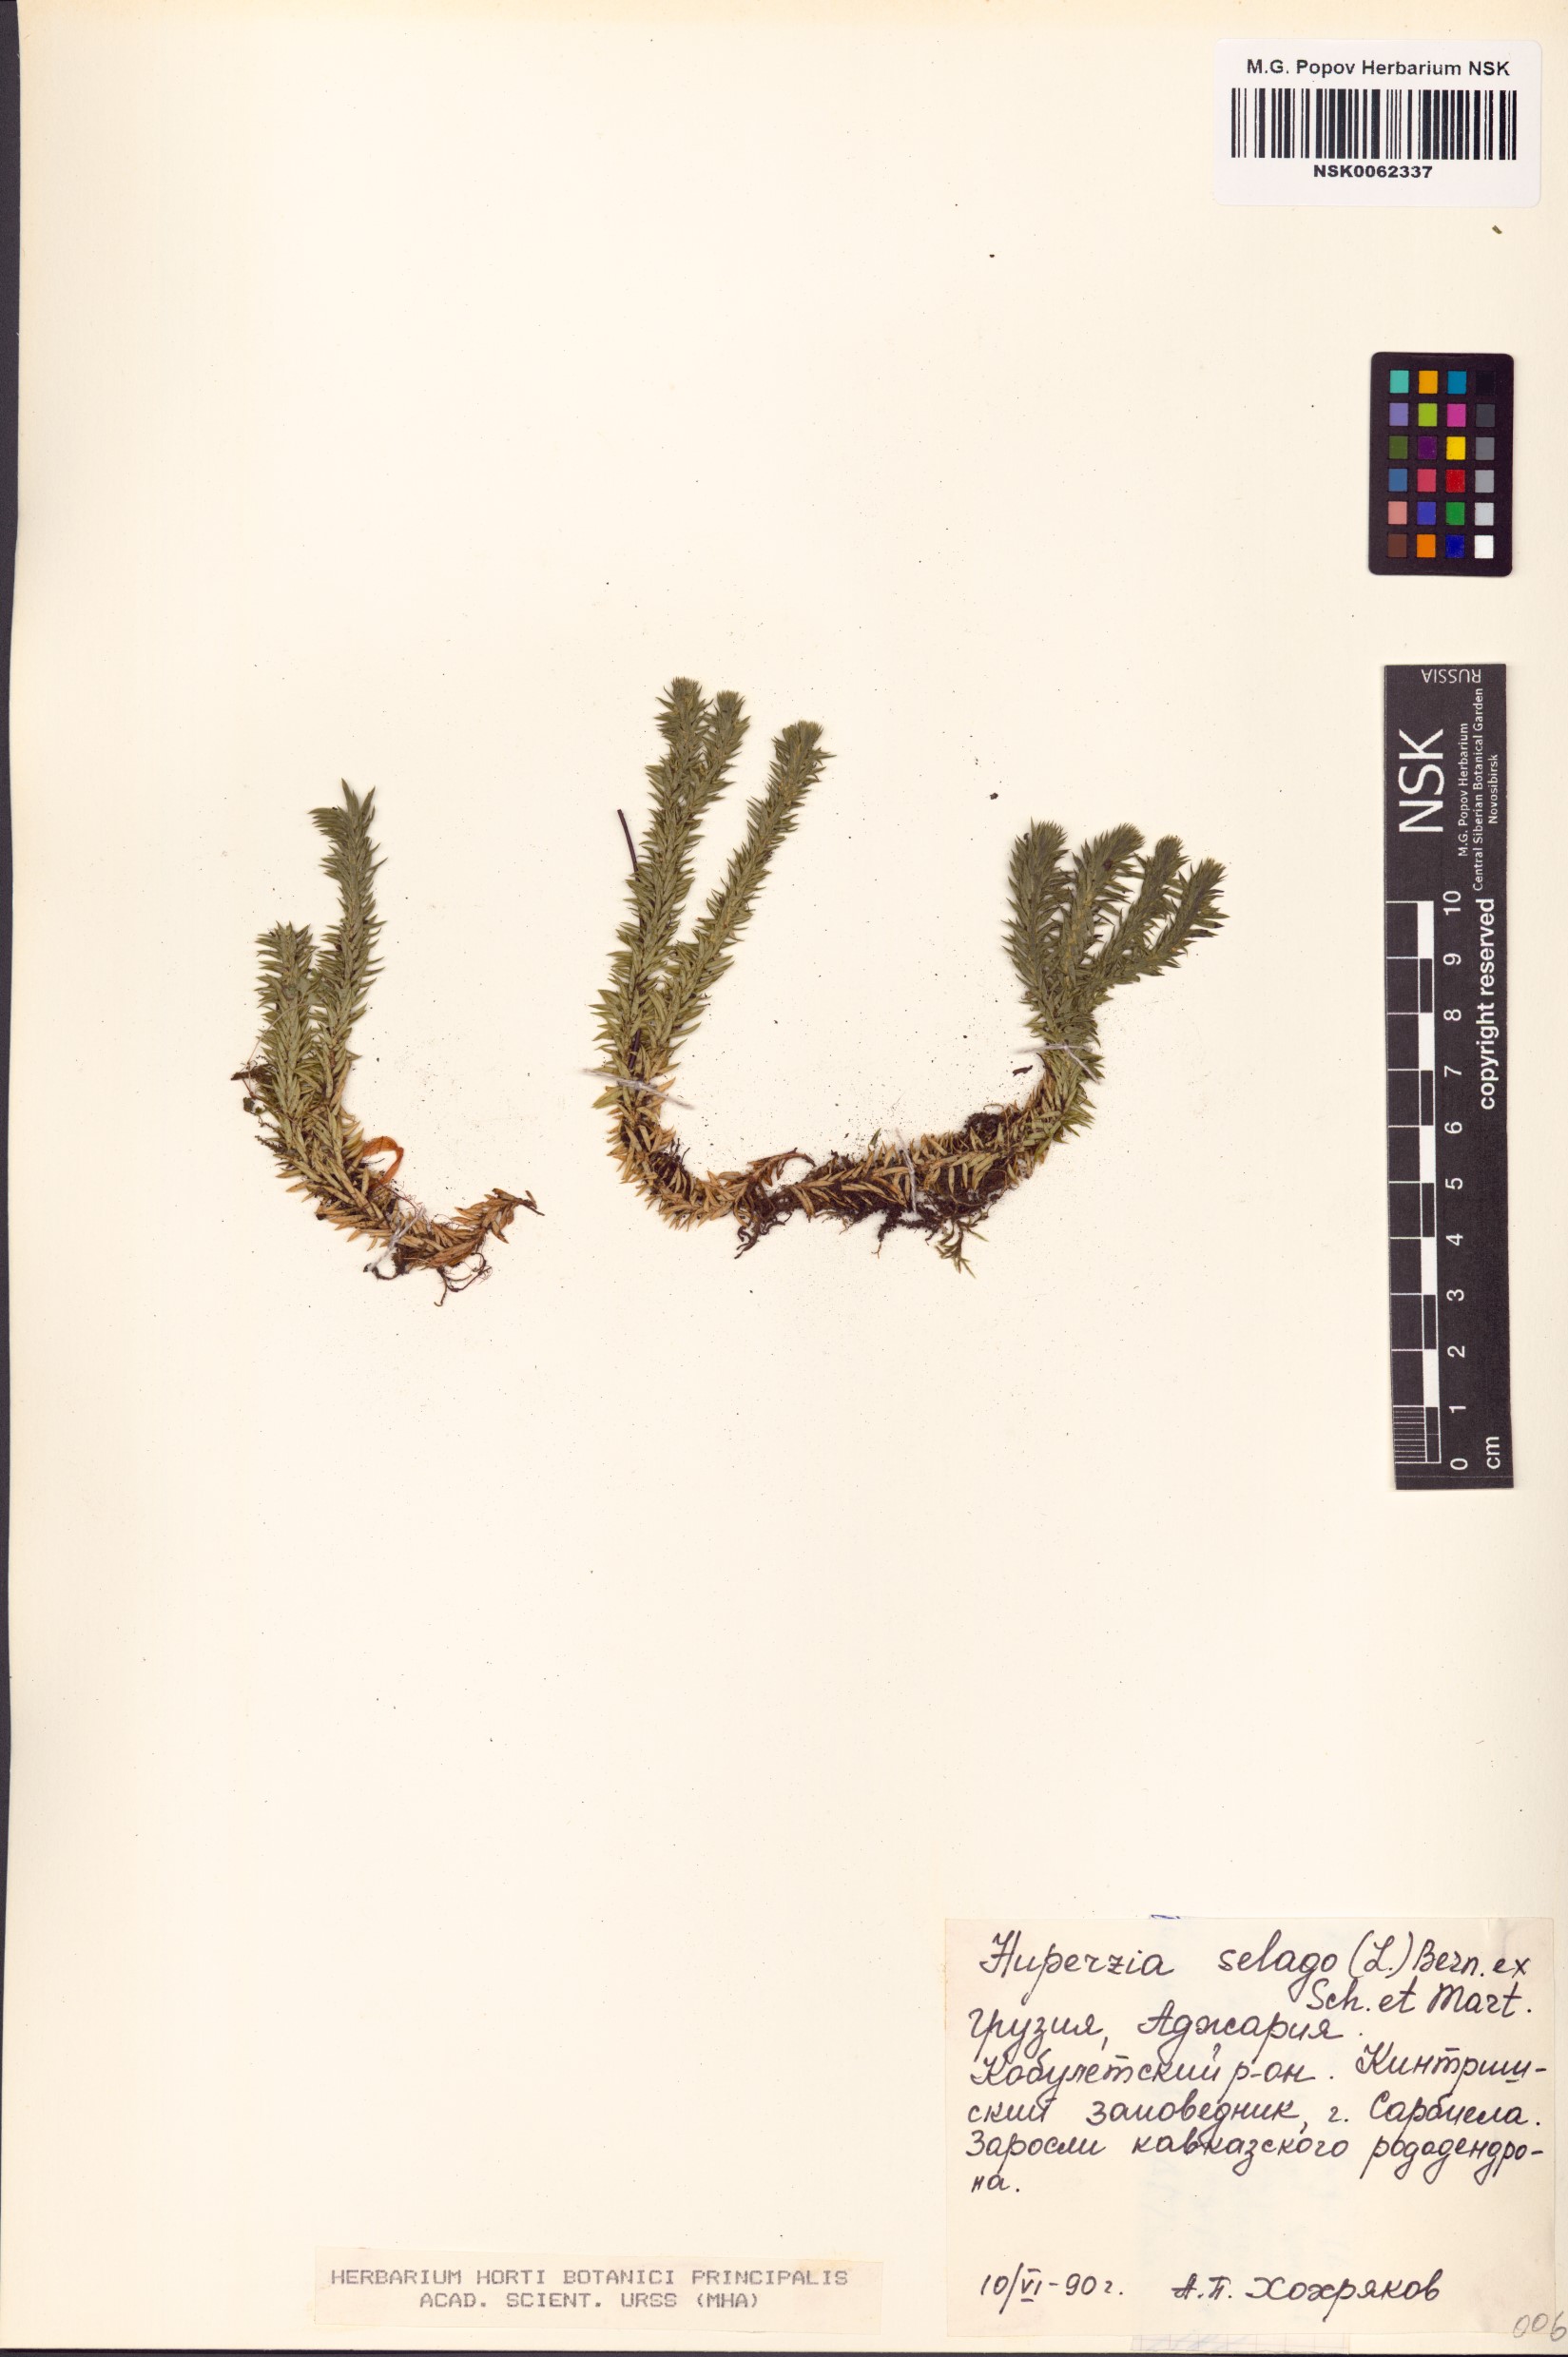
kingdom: Plantae
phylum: Tracheophyta
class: Lycopodiopsida
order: Lycopodiales
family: Lycopodiaceae
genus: Huperzia
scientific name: Huperzia selago
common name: Northern firmoss
